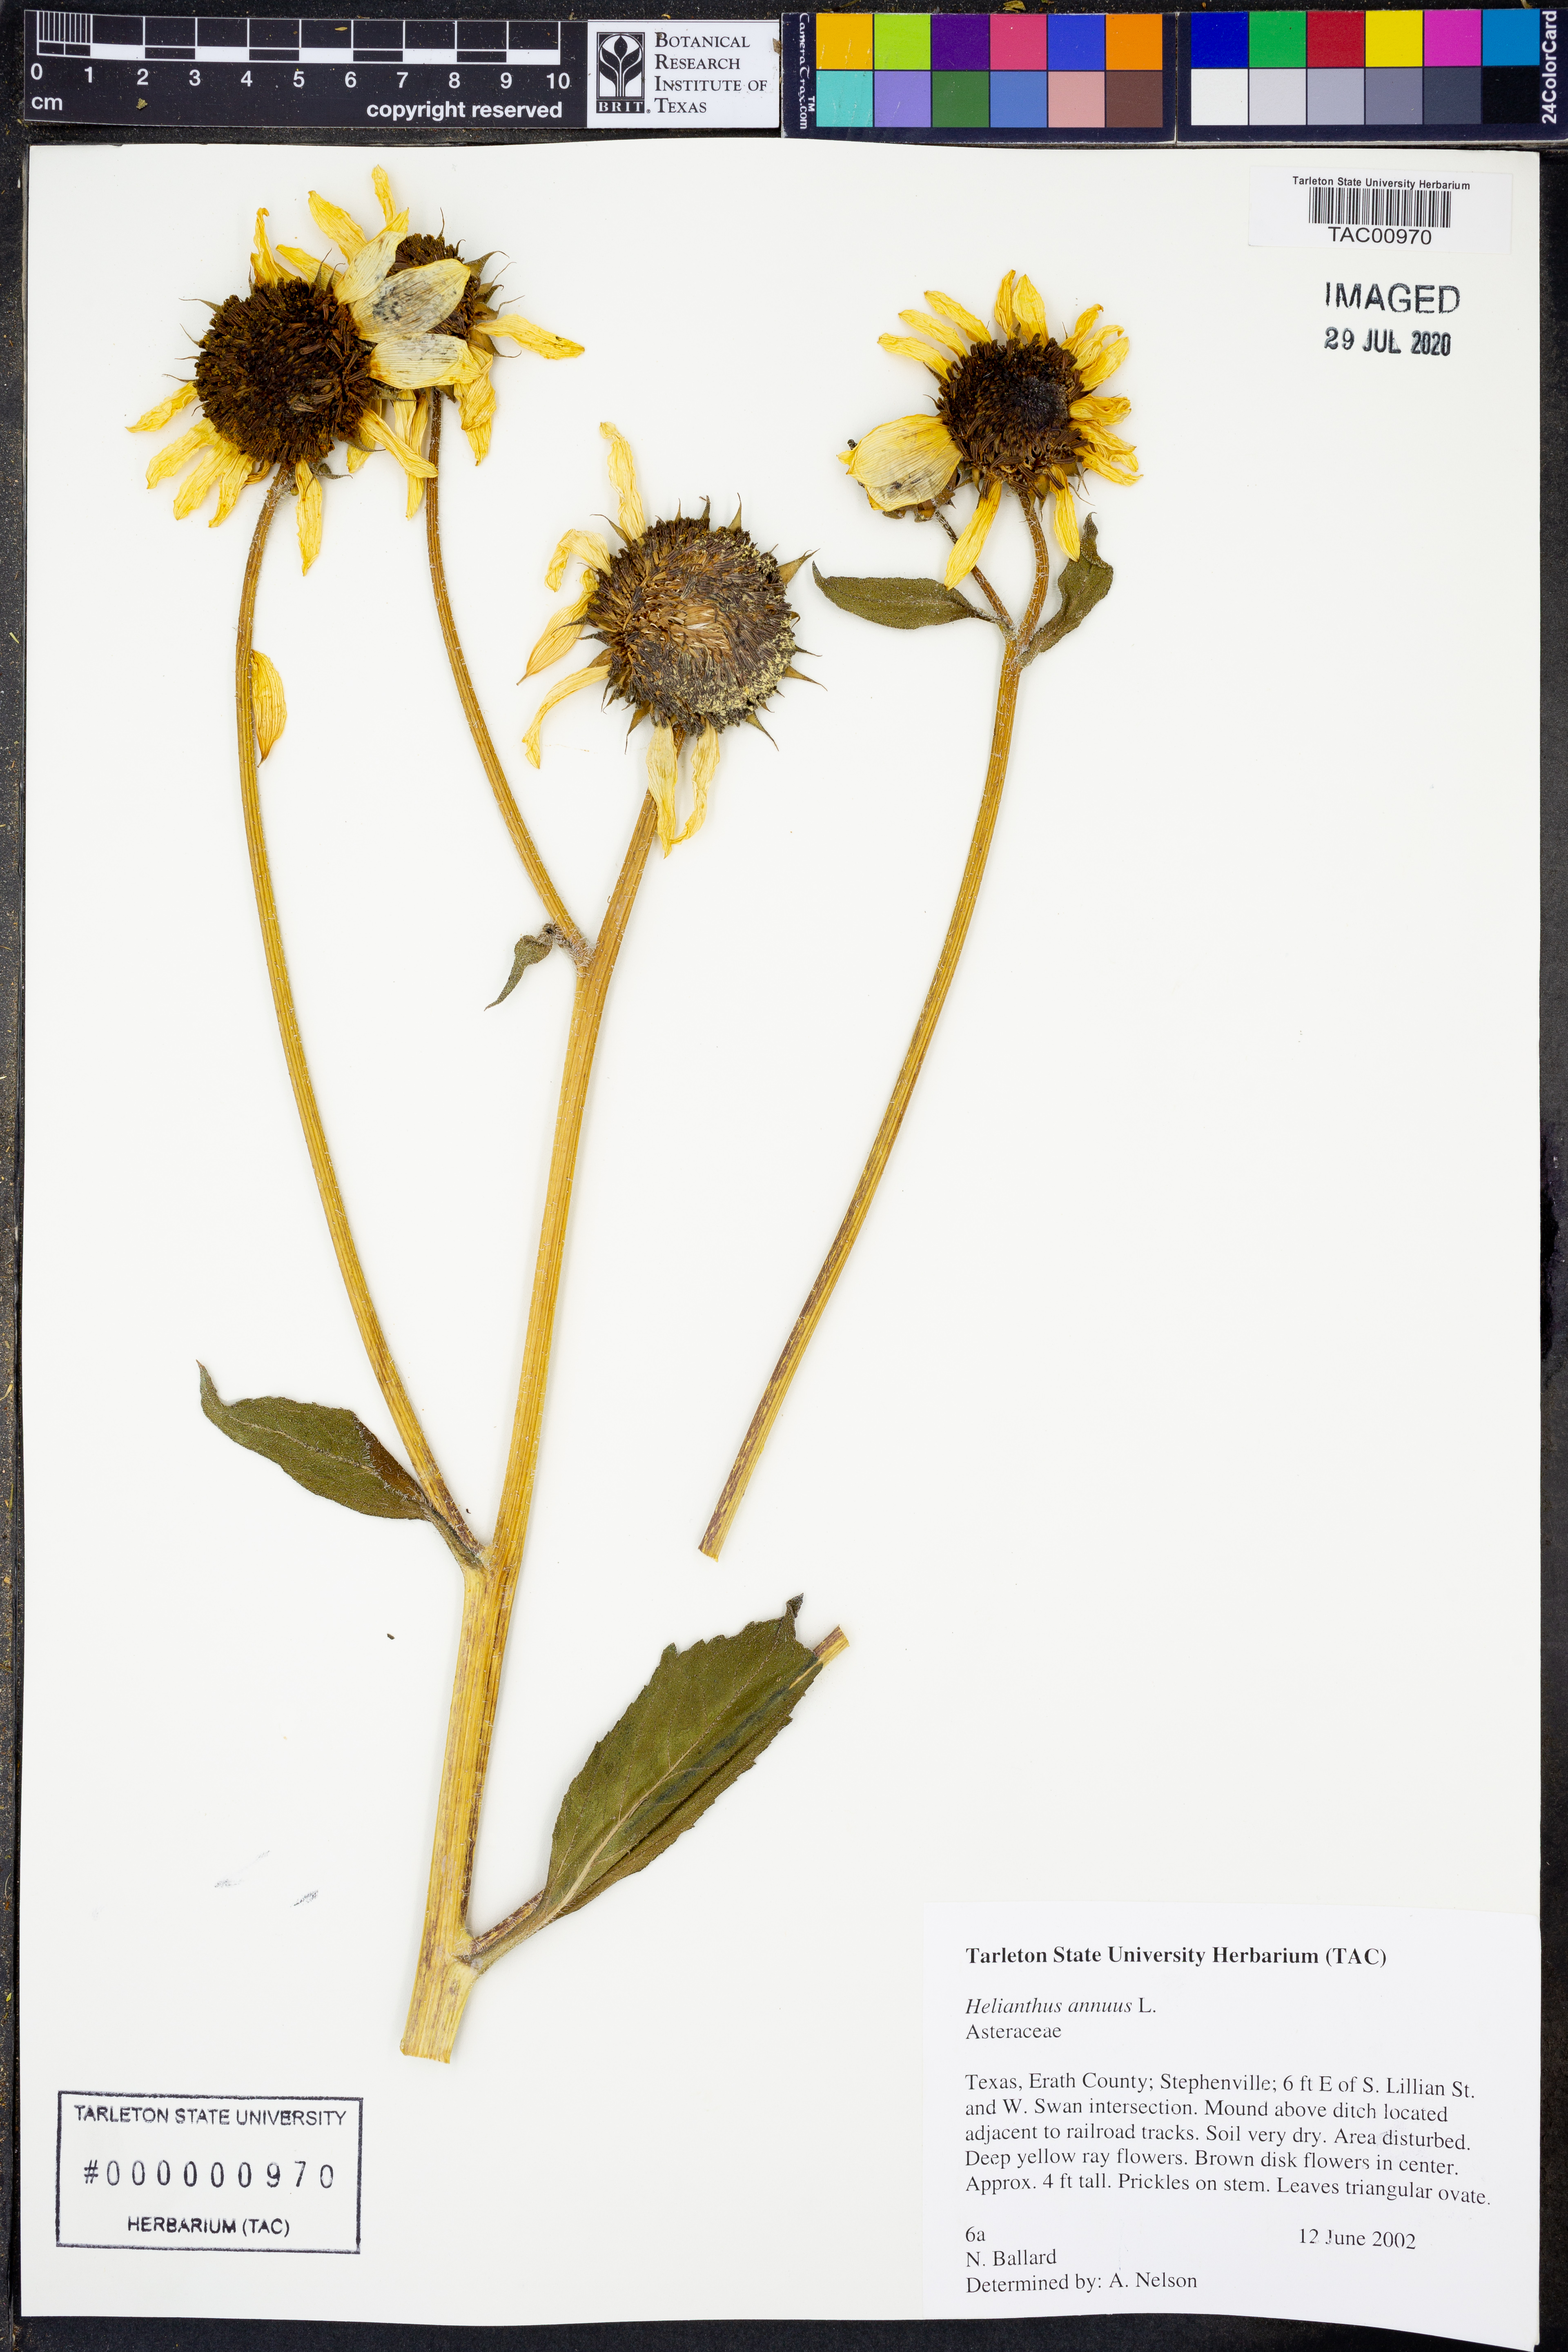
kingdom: Plantae
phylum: Tracheophyta
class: Magnoliopsida
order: Asterales
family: Asteraceae
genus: Helianthus
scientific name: Helianthus annuus
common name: Sunflower
